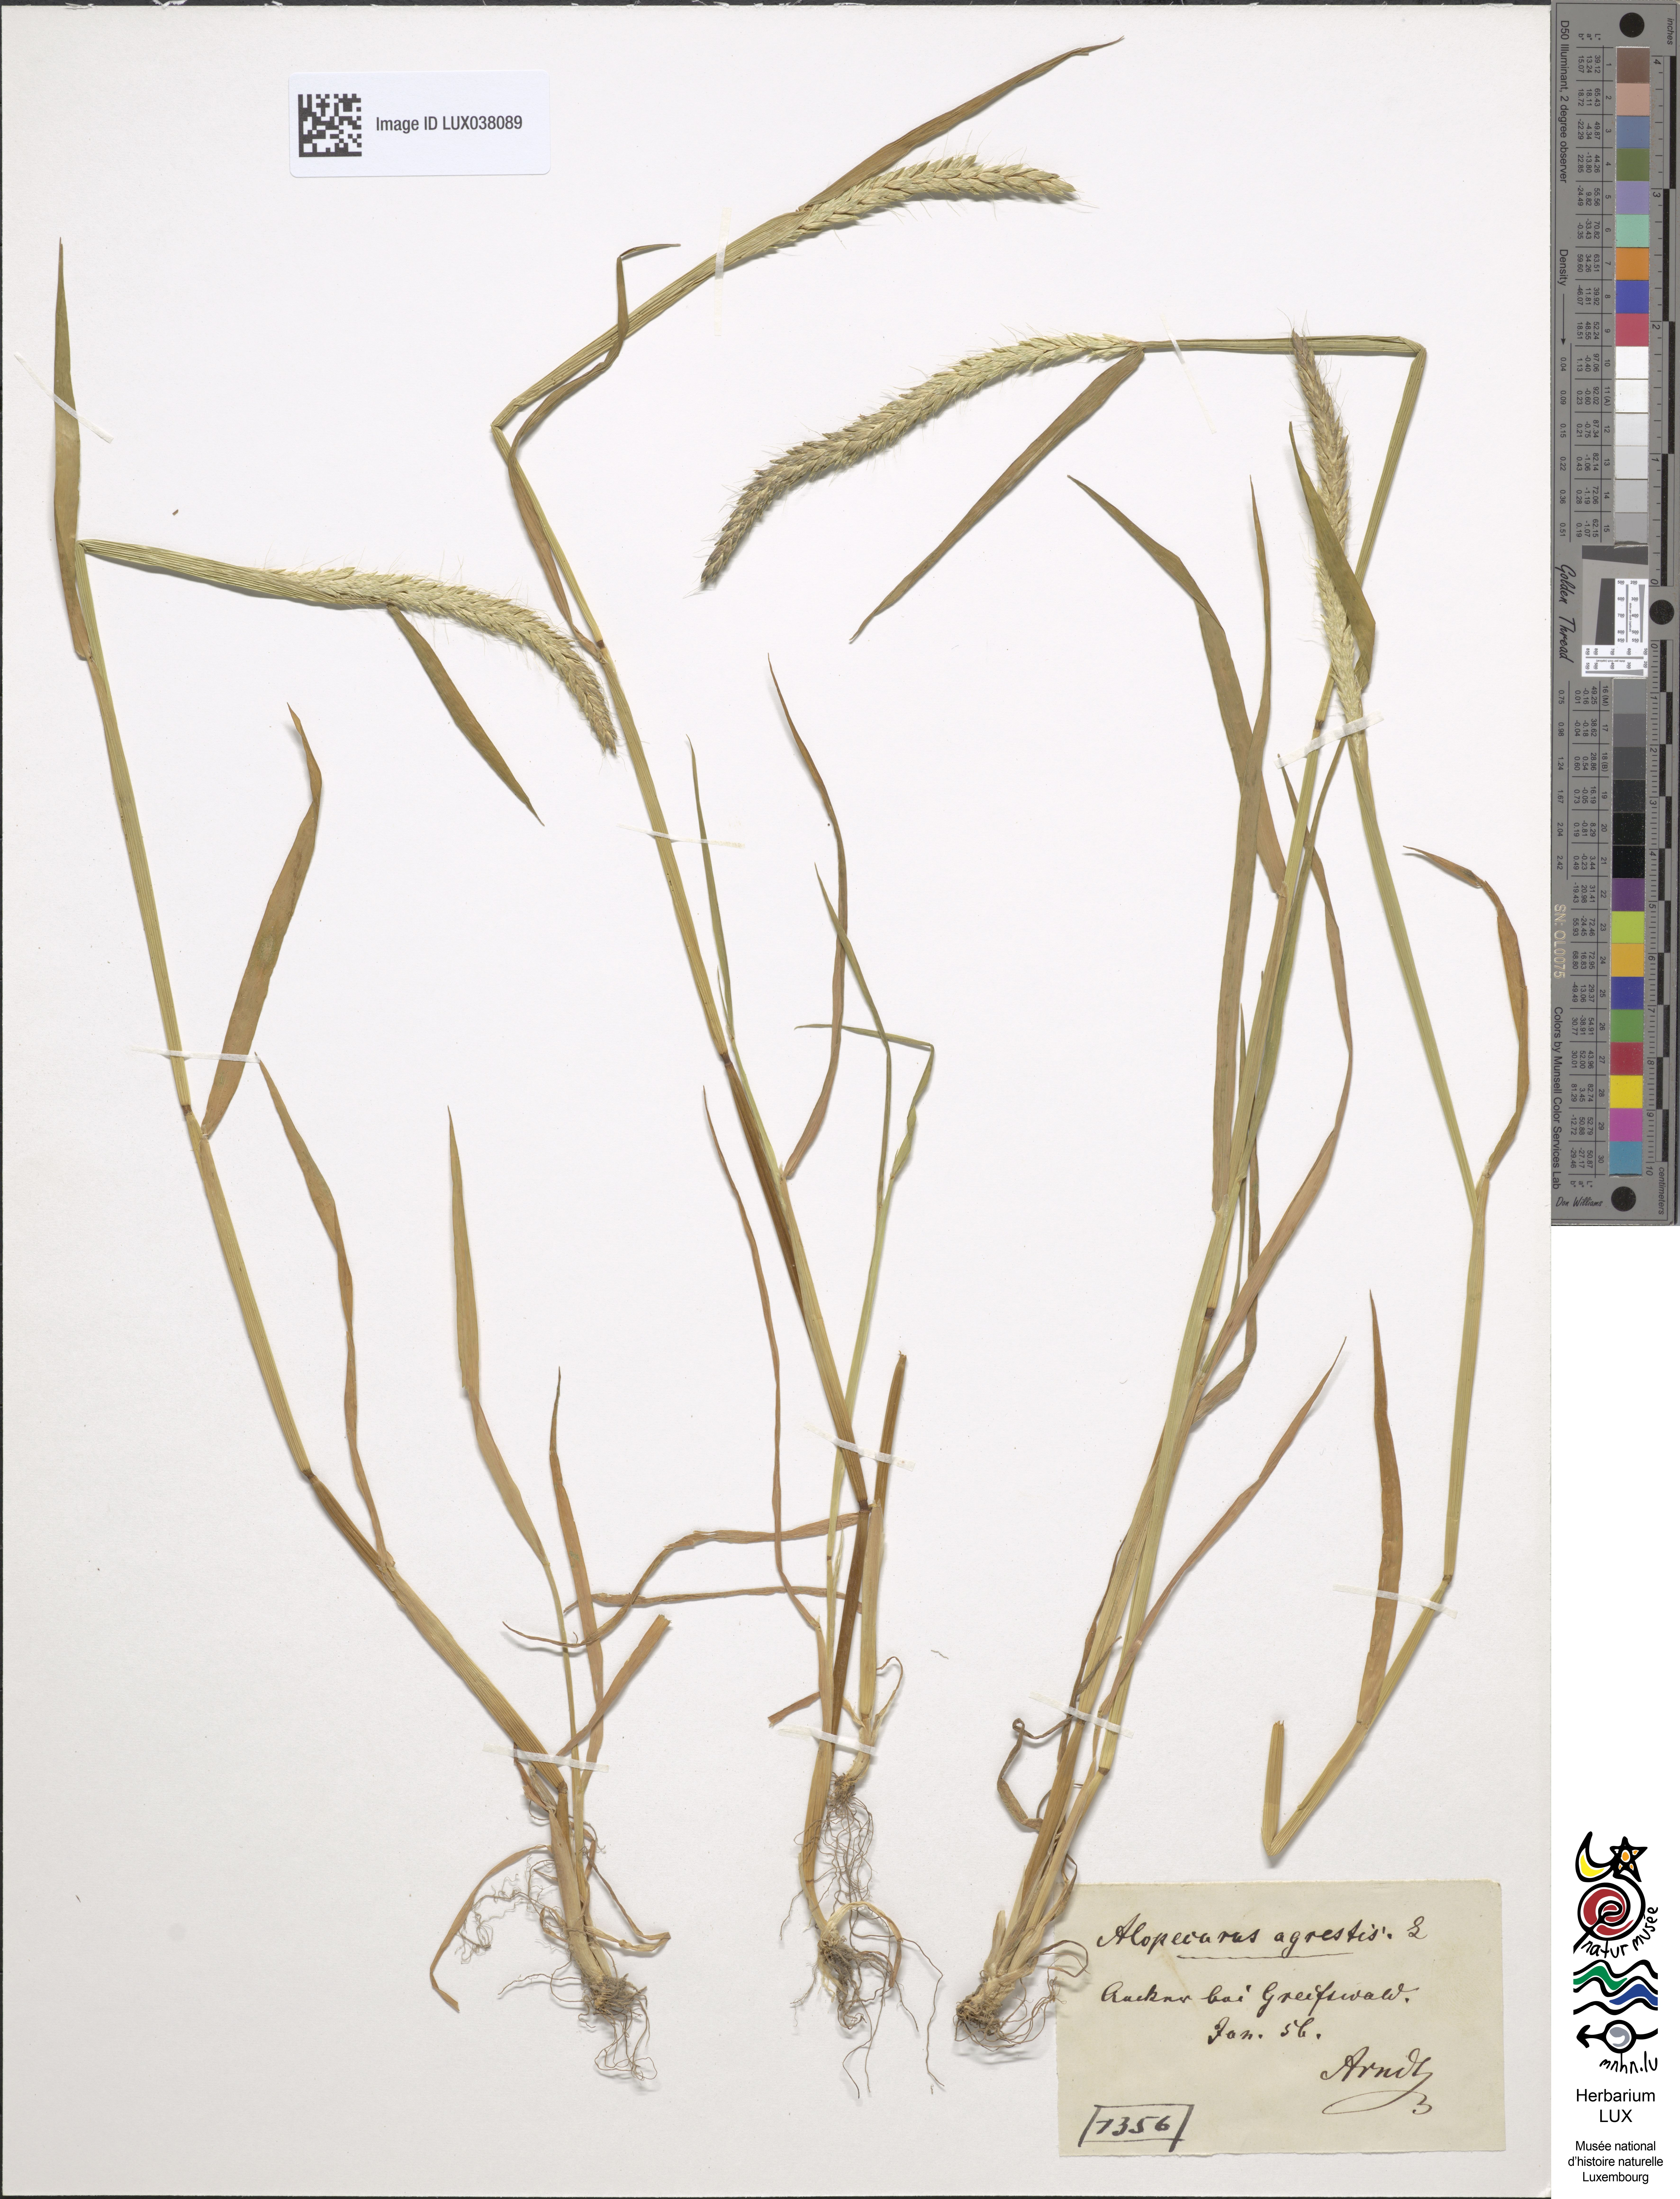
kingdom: Plantae
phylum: Tracheophyta
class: Liliopsida
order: Poales
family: Poaceae
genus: Alopecurus
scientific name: Alopecurus myosuroides
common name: Black-grass
